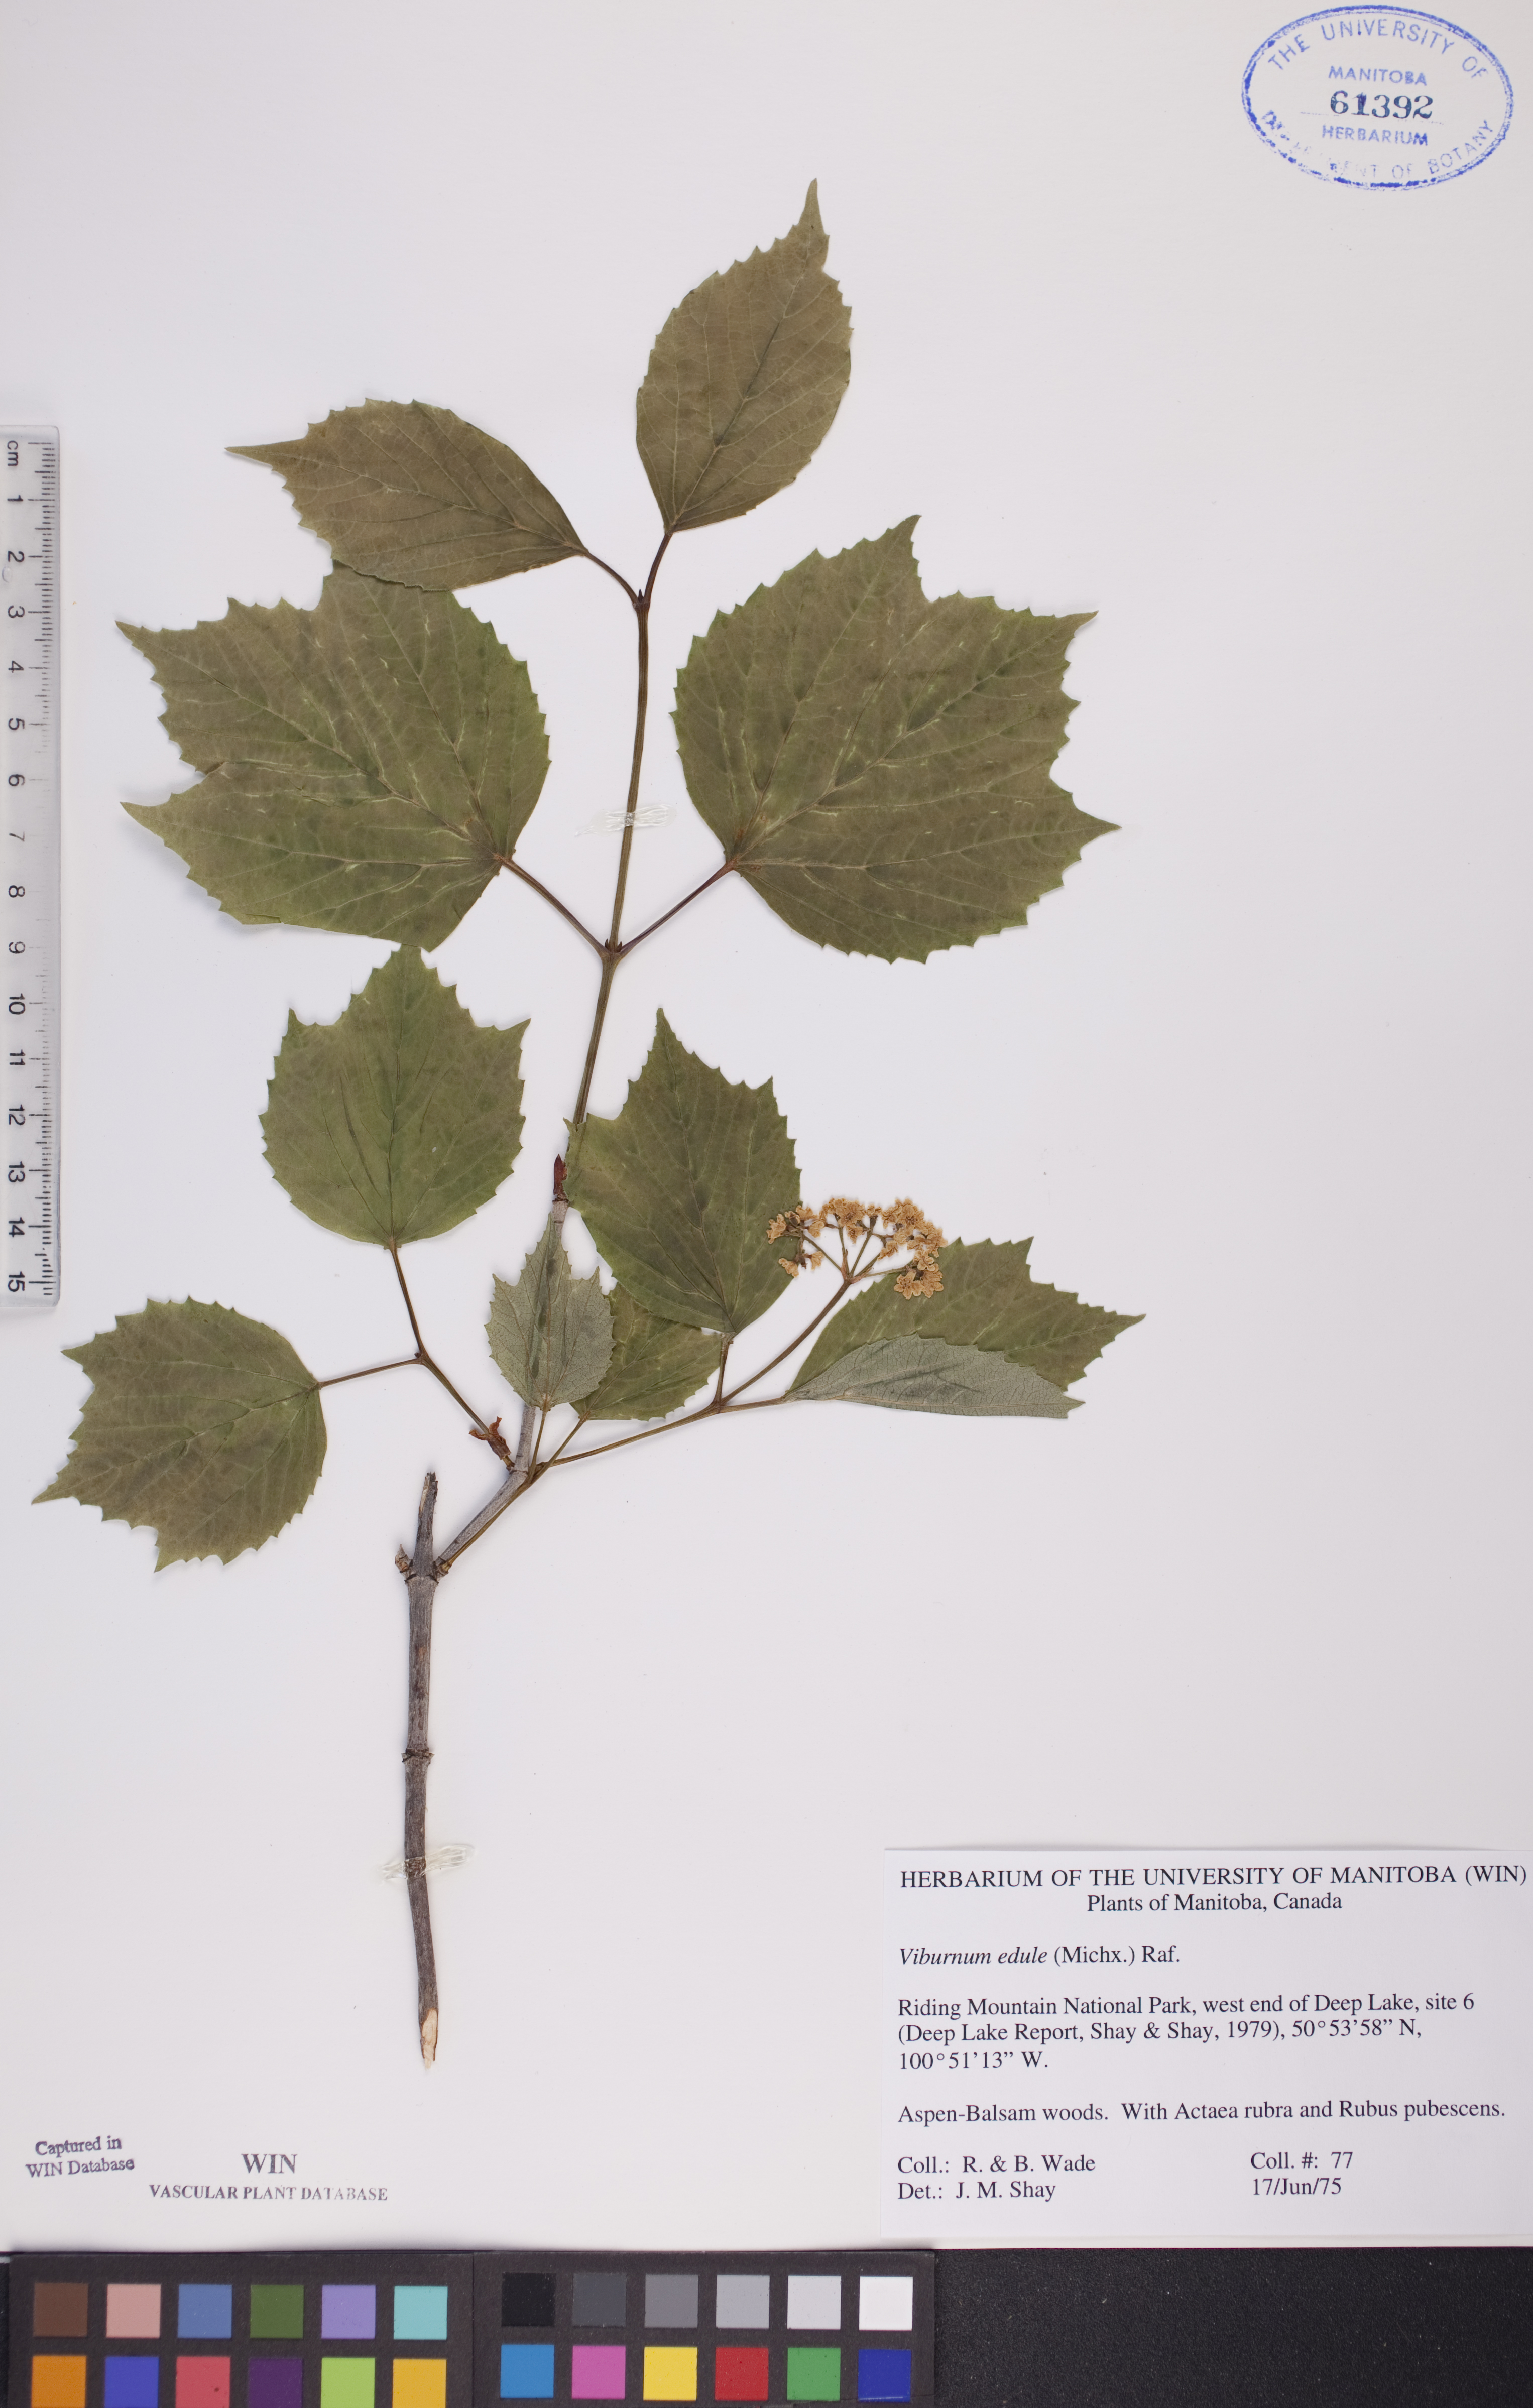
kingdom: Plantae
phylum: Tracheophyta
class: Magnoliopsida
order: Dipsacales
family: Viburnaceae
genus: Viburnum
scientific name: Viburnum edule
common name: Mooseberry
